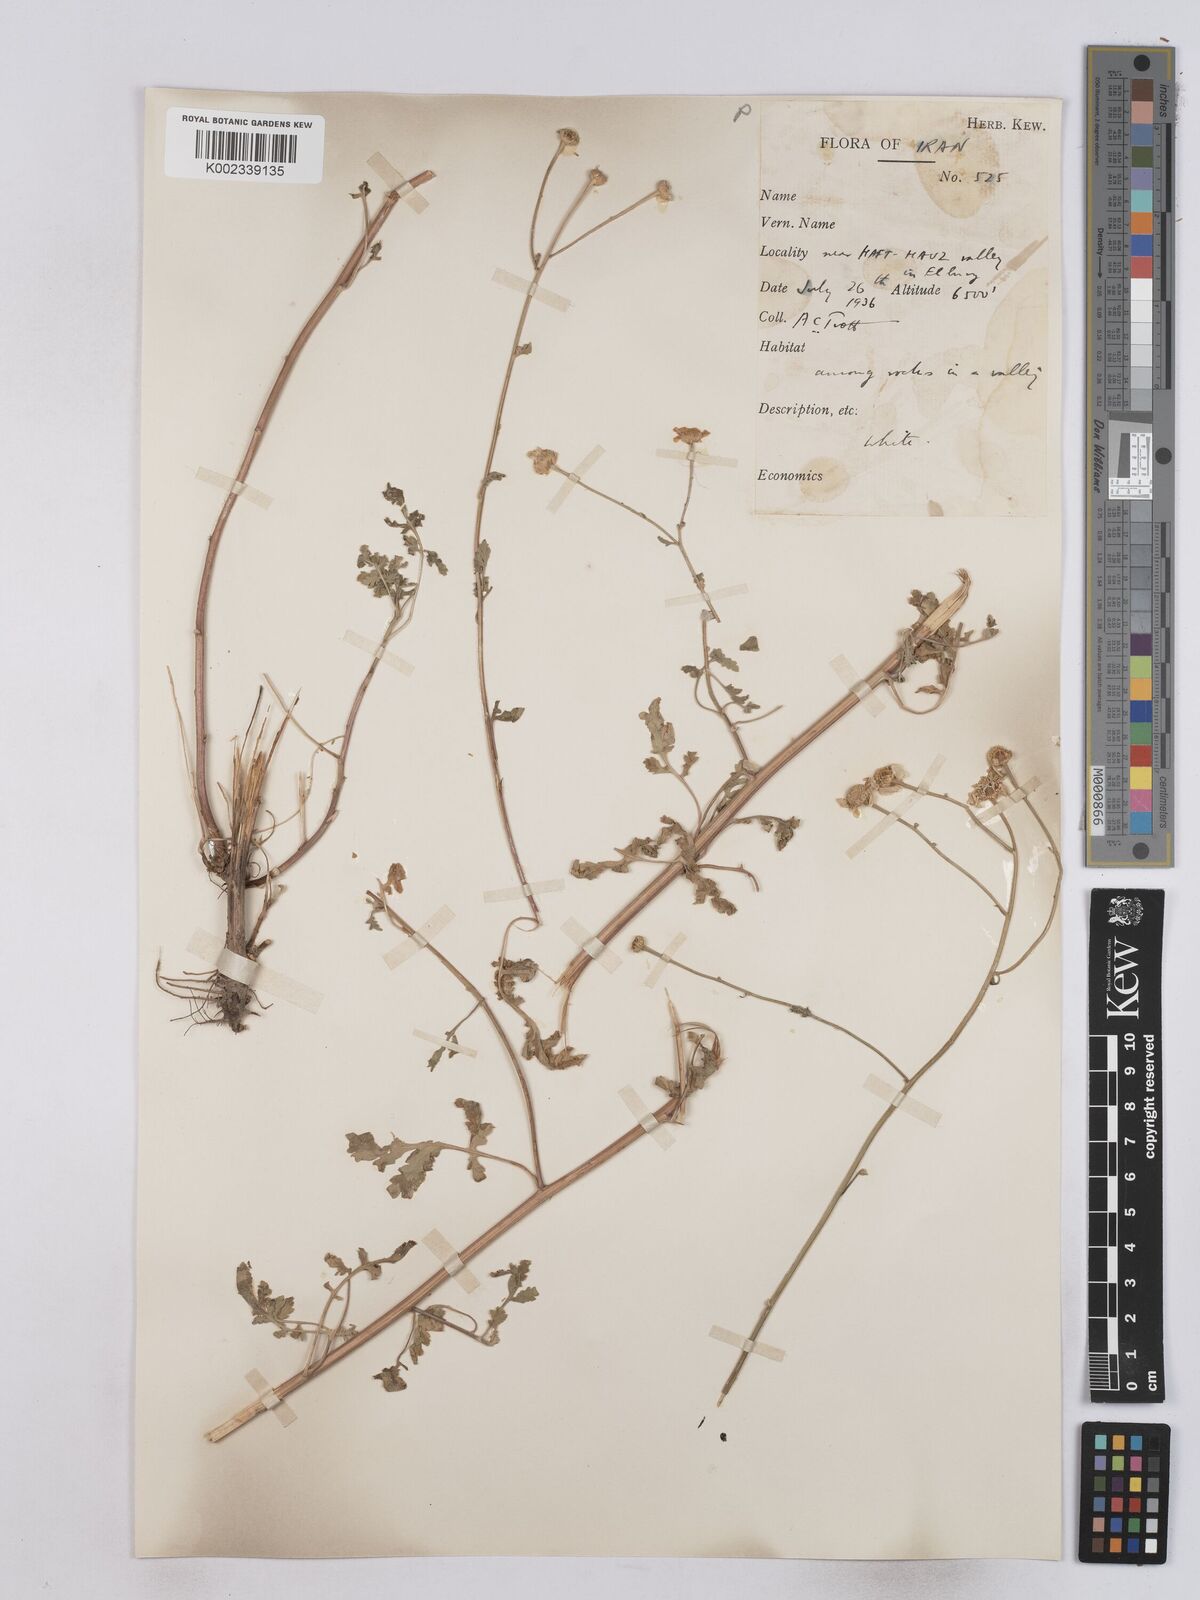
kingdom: Plantae
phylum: Tracheophyta
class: Magnoliopsida
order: Asterales
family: Asteraceae
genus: Tanacetum
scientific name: Tanacetum partheniifolium
